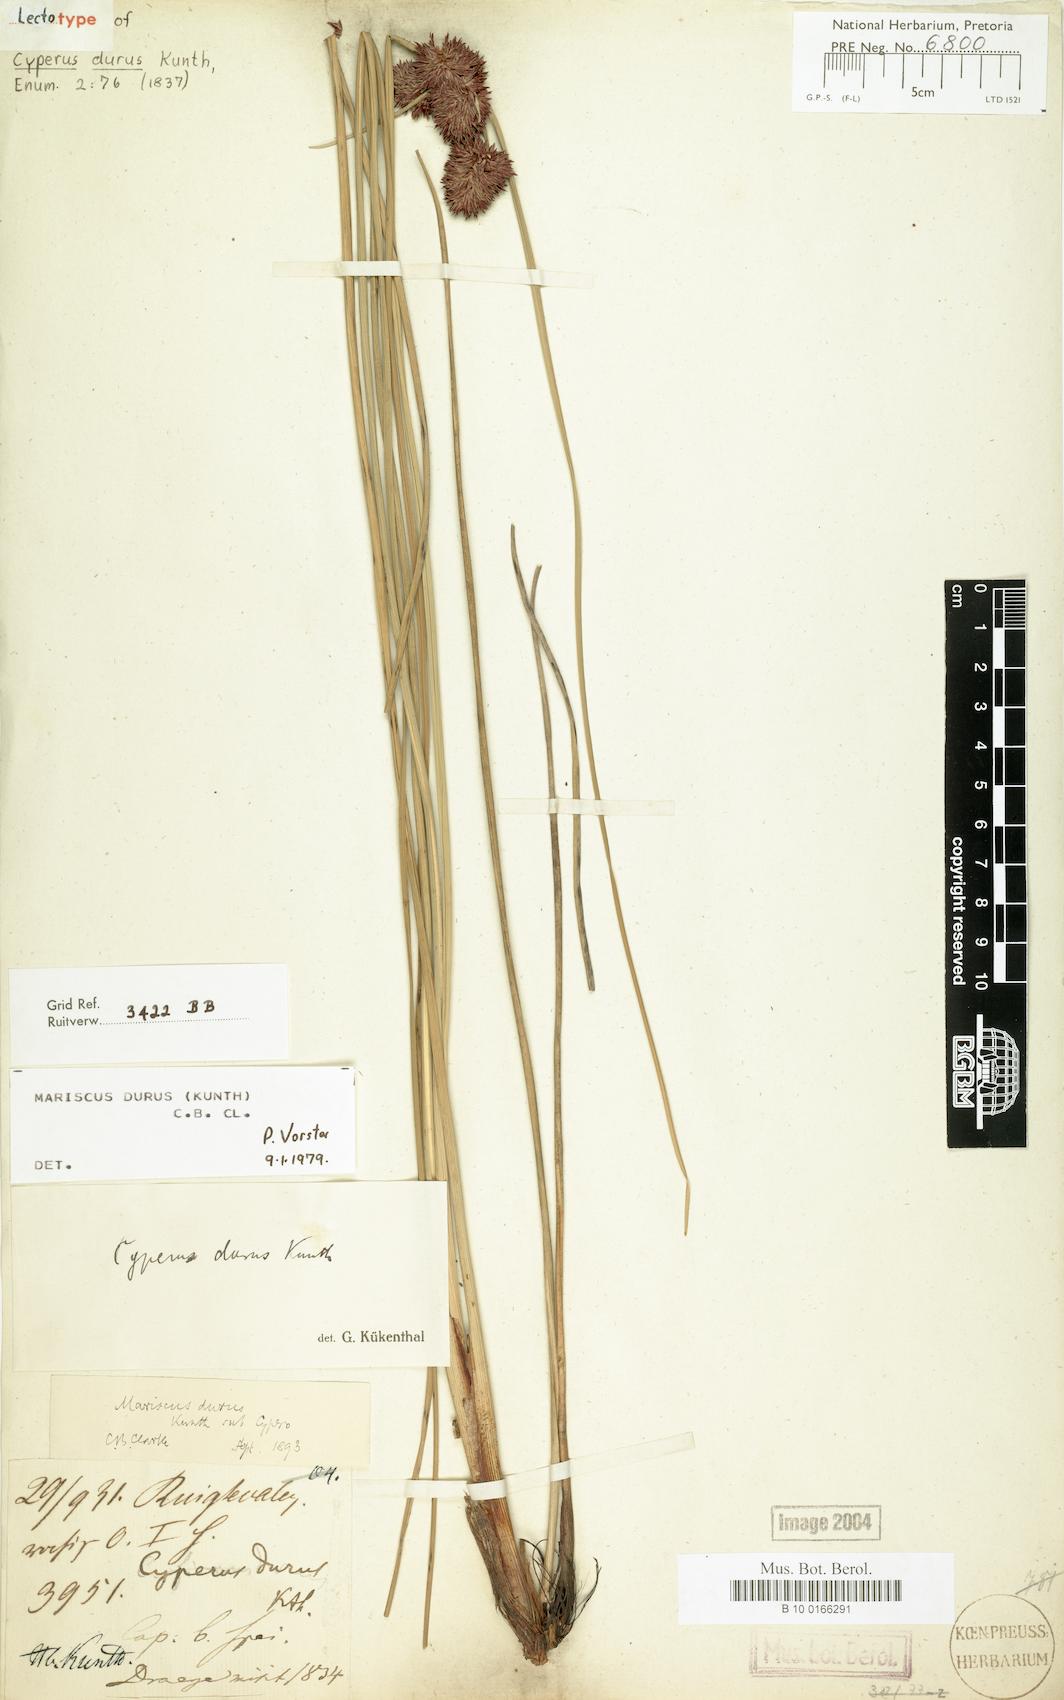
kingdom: Plantae
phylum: Tracheophyta
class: Liliopsida
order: Poales
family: Cyperaceae
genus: Cyperus
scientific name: Cyperus durus
